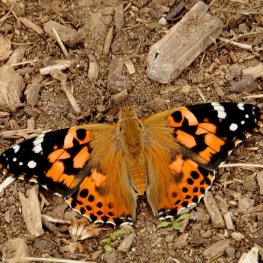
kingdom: Animalia
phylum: Arthropoda
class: Insecta
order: Lepidoptera
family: Nymphalidae
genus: Vanessa
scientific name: Vanessa cardui
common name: Painted Lady
